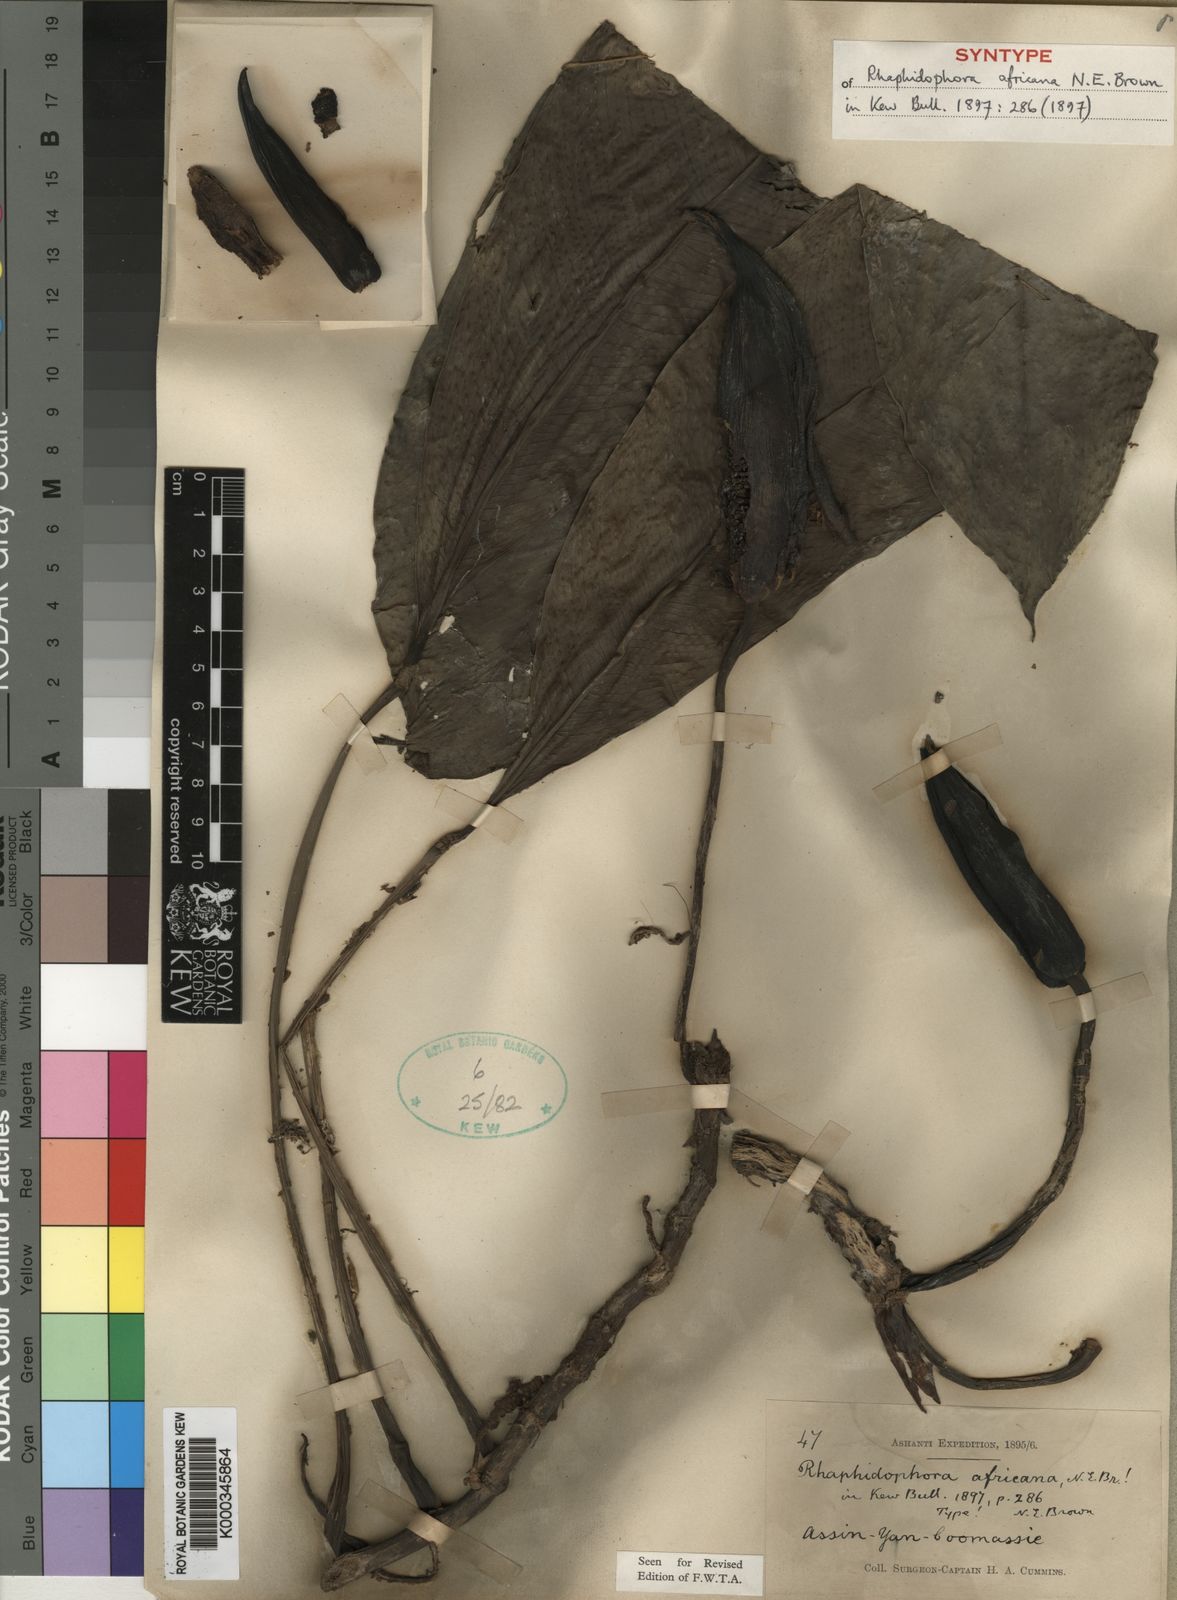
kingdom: Plantae
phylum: Tracheophyta
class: Liliopsida
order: Alismatales
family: Araceae
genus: Rhaphidophora
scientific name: Rhaphidophora africana
